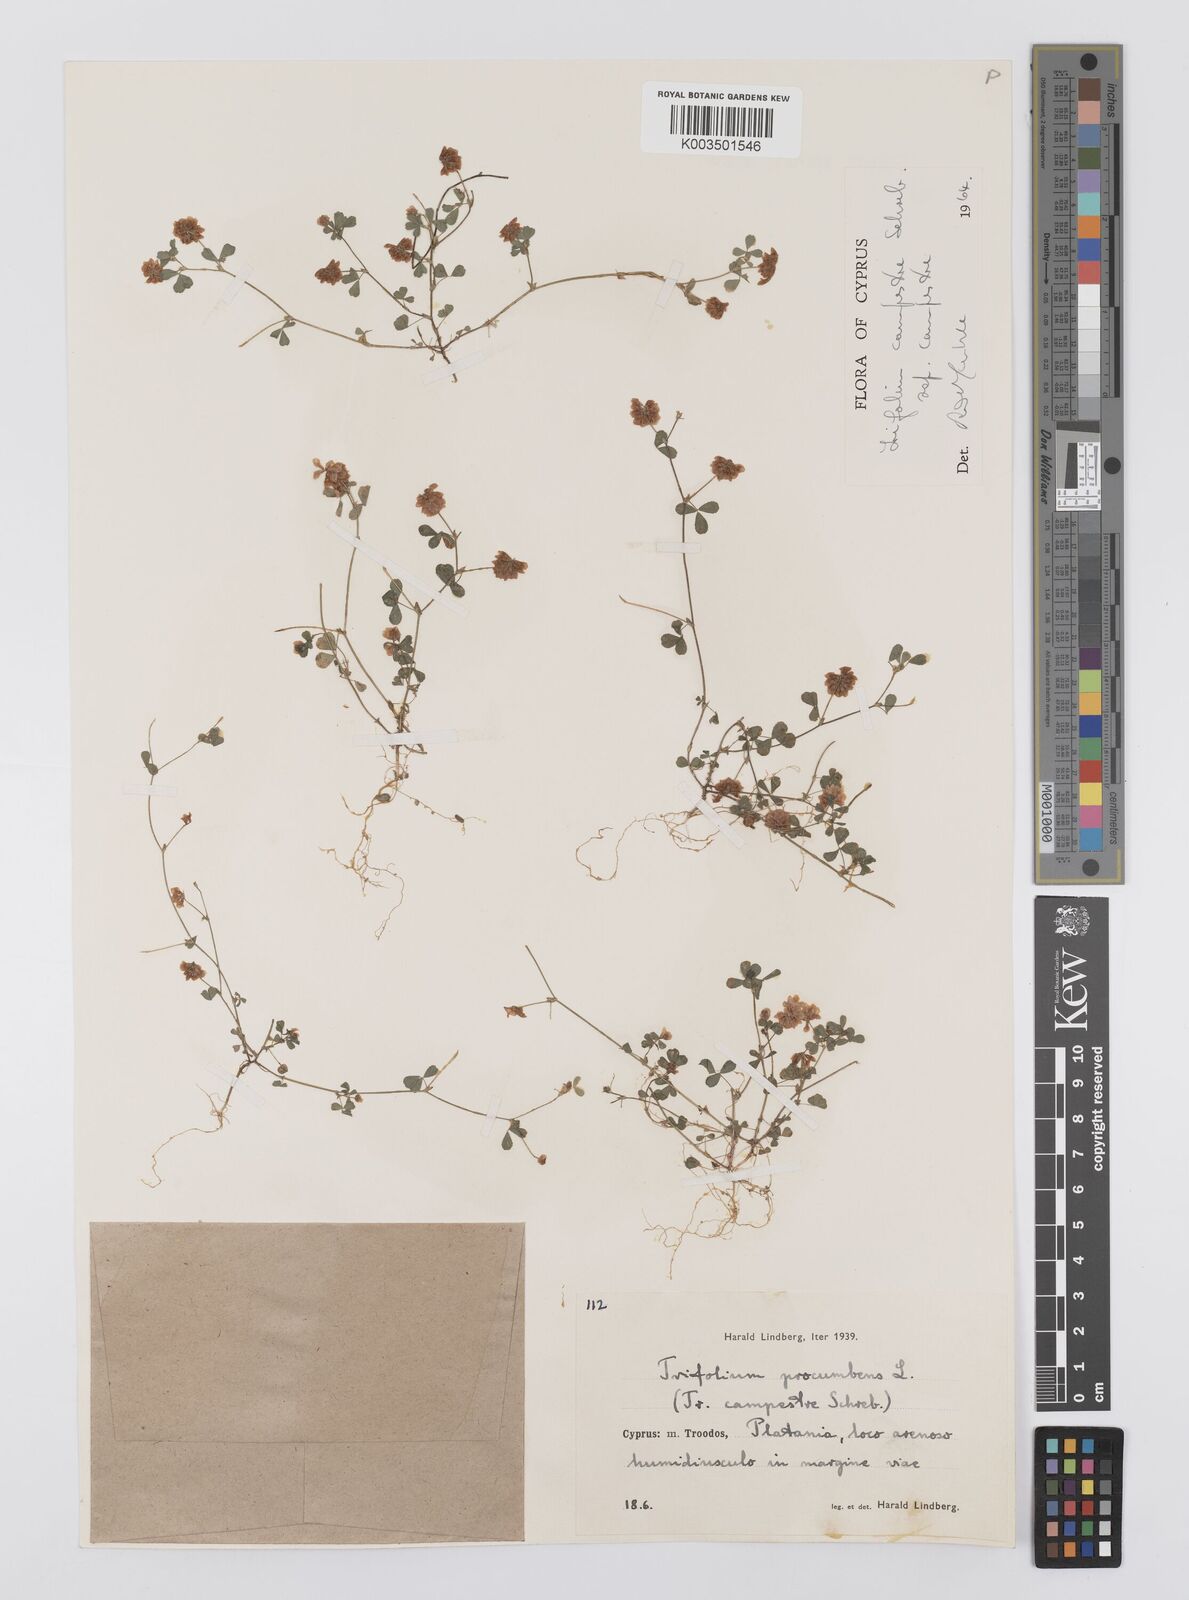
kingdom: Plantae
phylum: Tracheophyta
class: Magnoliopsida
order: Fabales
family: Fabaceae
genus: Trifolium
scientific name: Trifolium campestre
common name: Field clover
